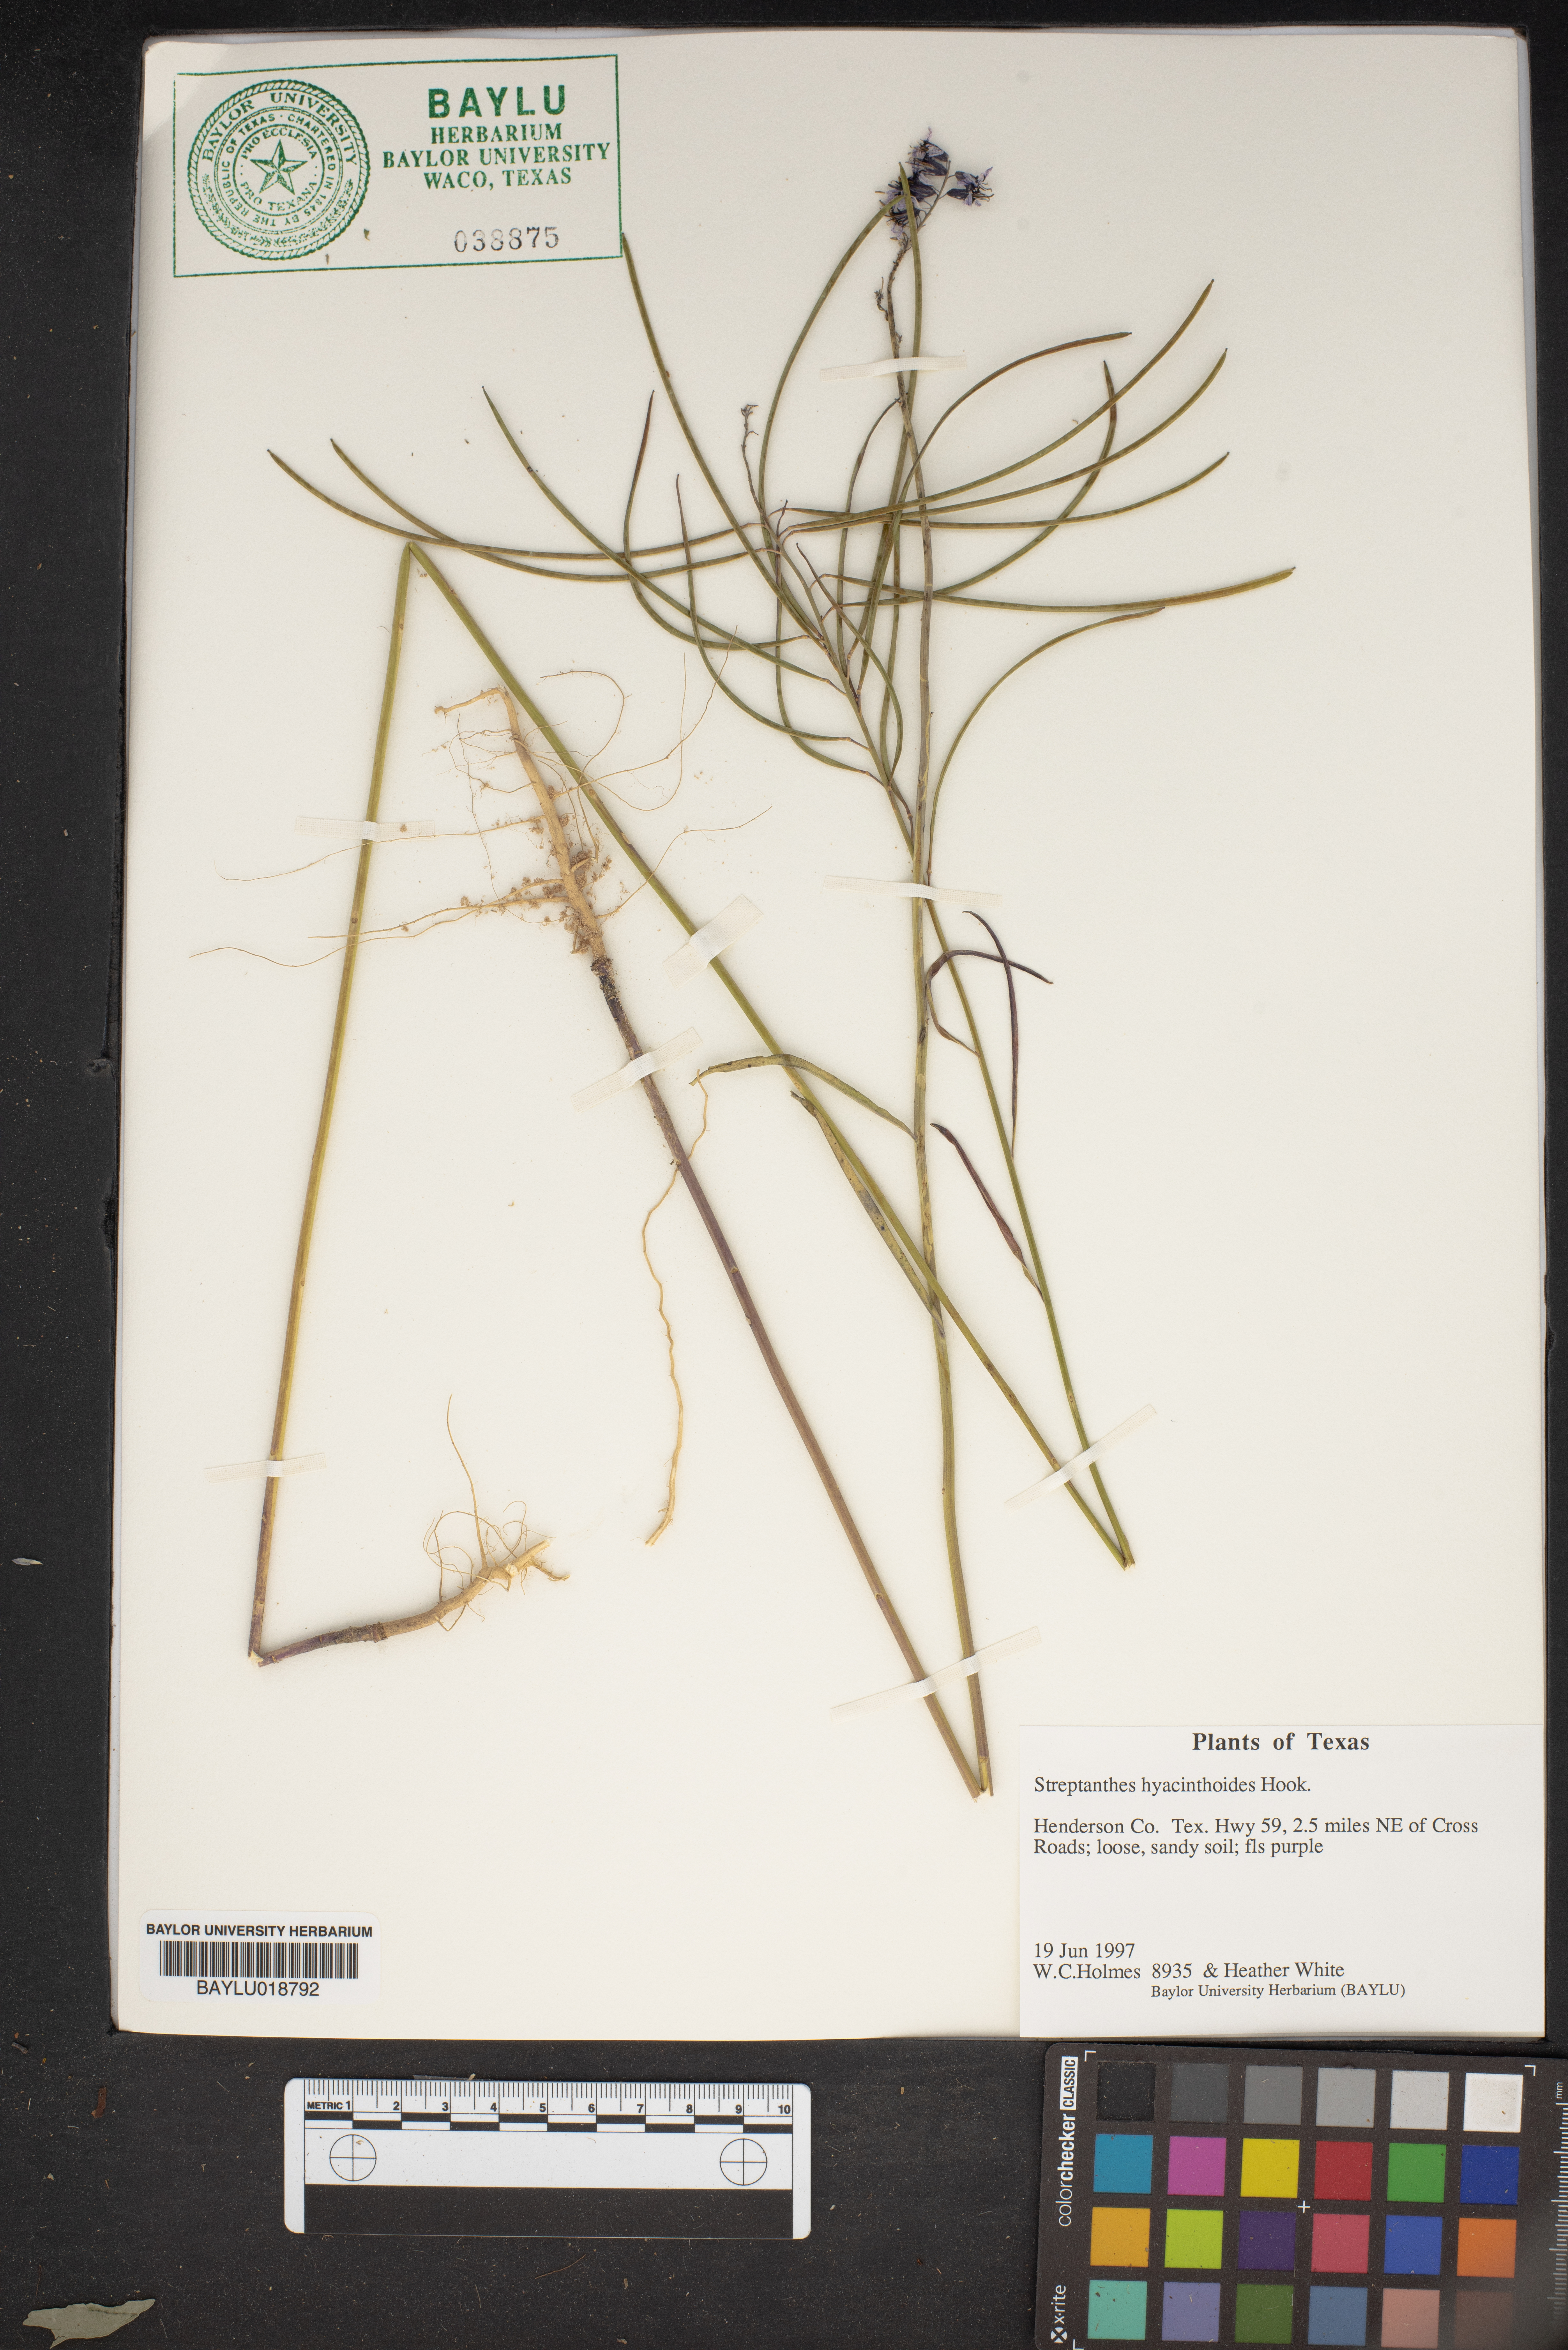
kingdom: Plantae
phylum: Tracheophyta
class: Magnoliopsida
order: Brassicales
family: Brassicaceae
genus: Streptanthus
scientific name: Streptanthus hyacinthoides
